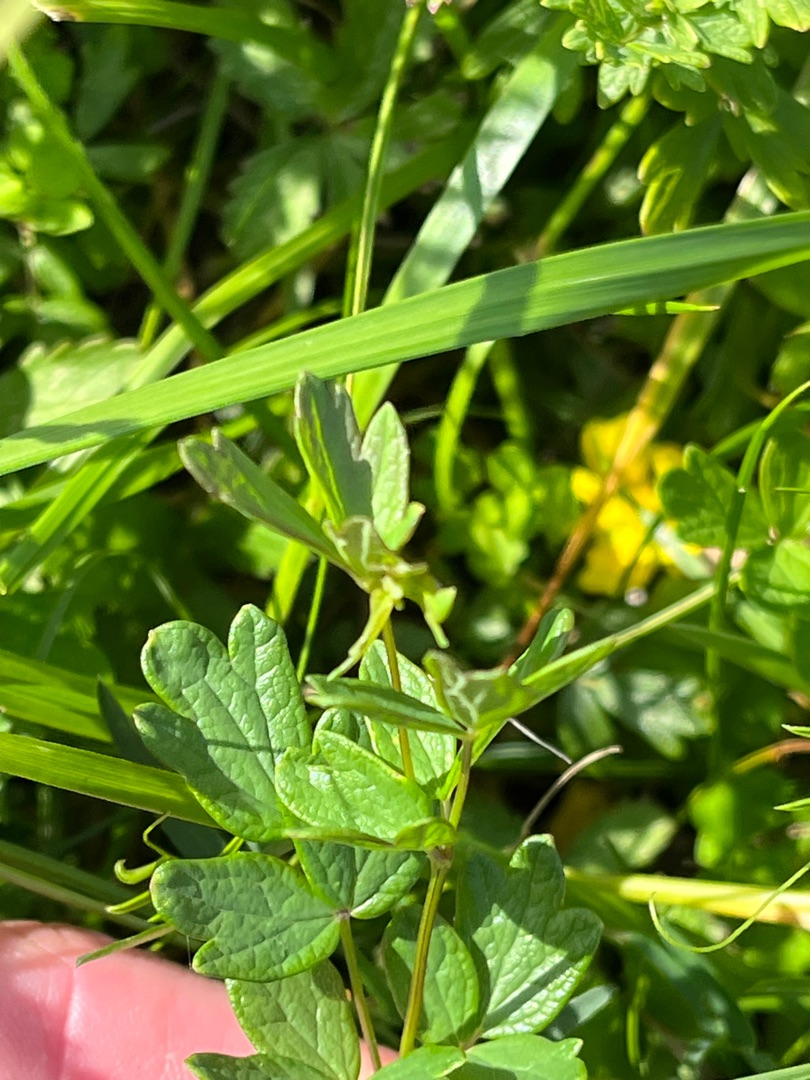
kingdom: Plantae
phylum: Tracheophyta
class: Magnoliopsida
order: Ranunculales
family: Ranunculaceae
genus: Thalictrum
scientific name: Thalictrum simplex
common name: Rank frøstjerne
